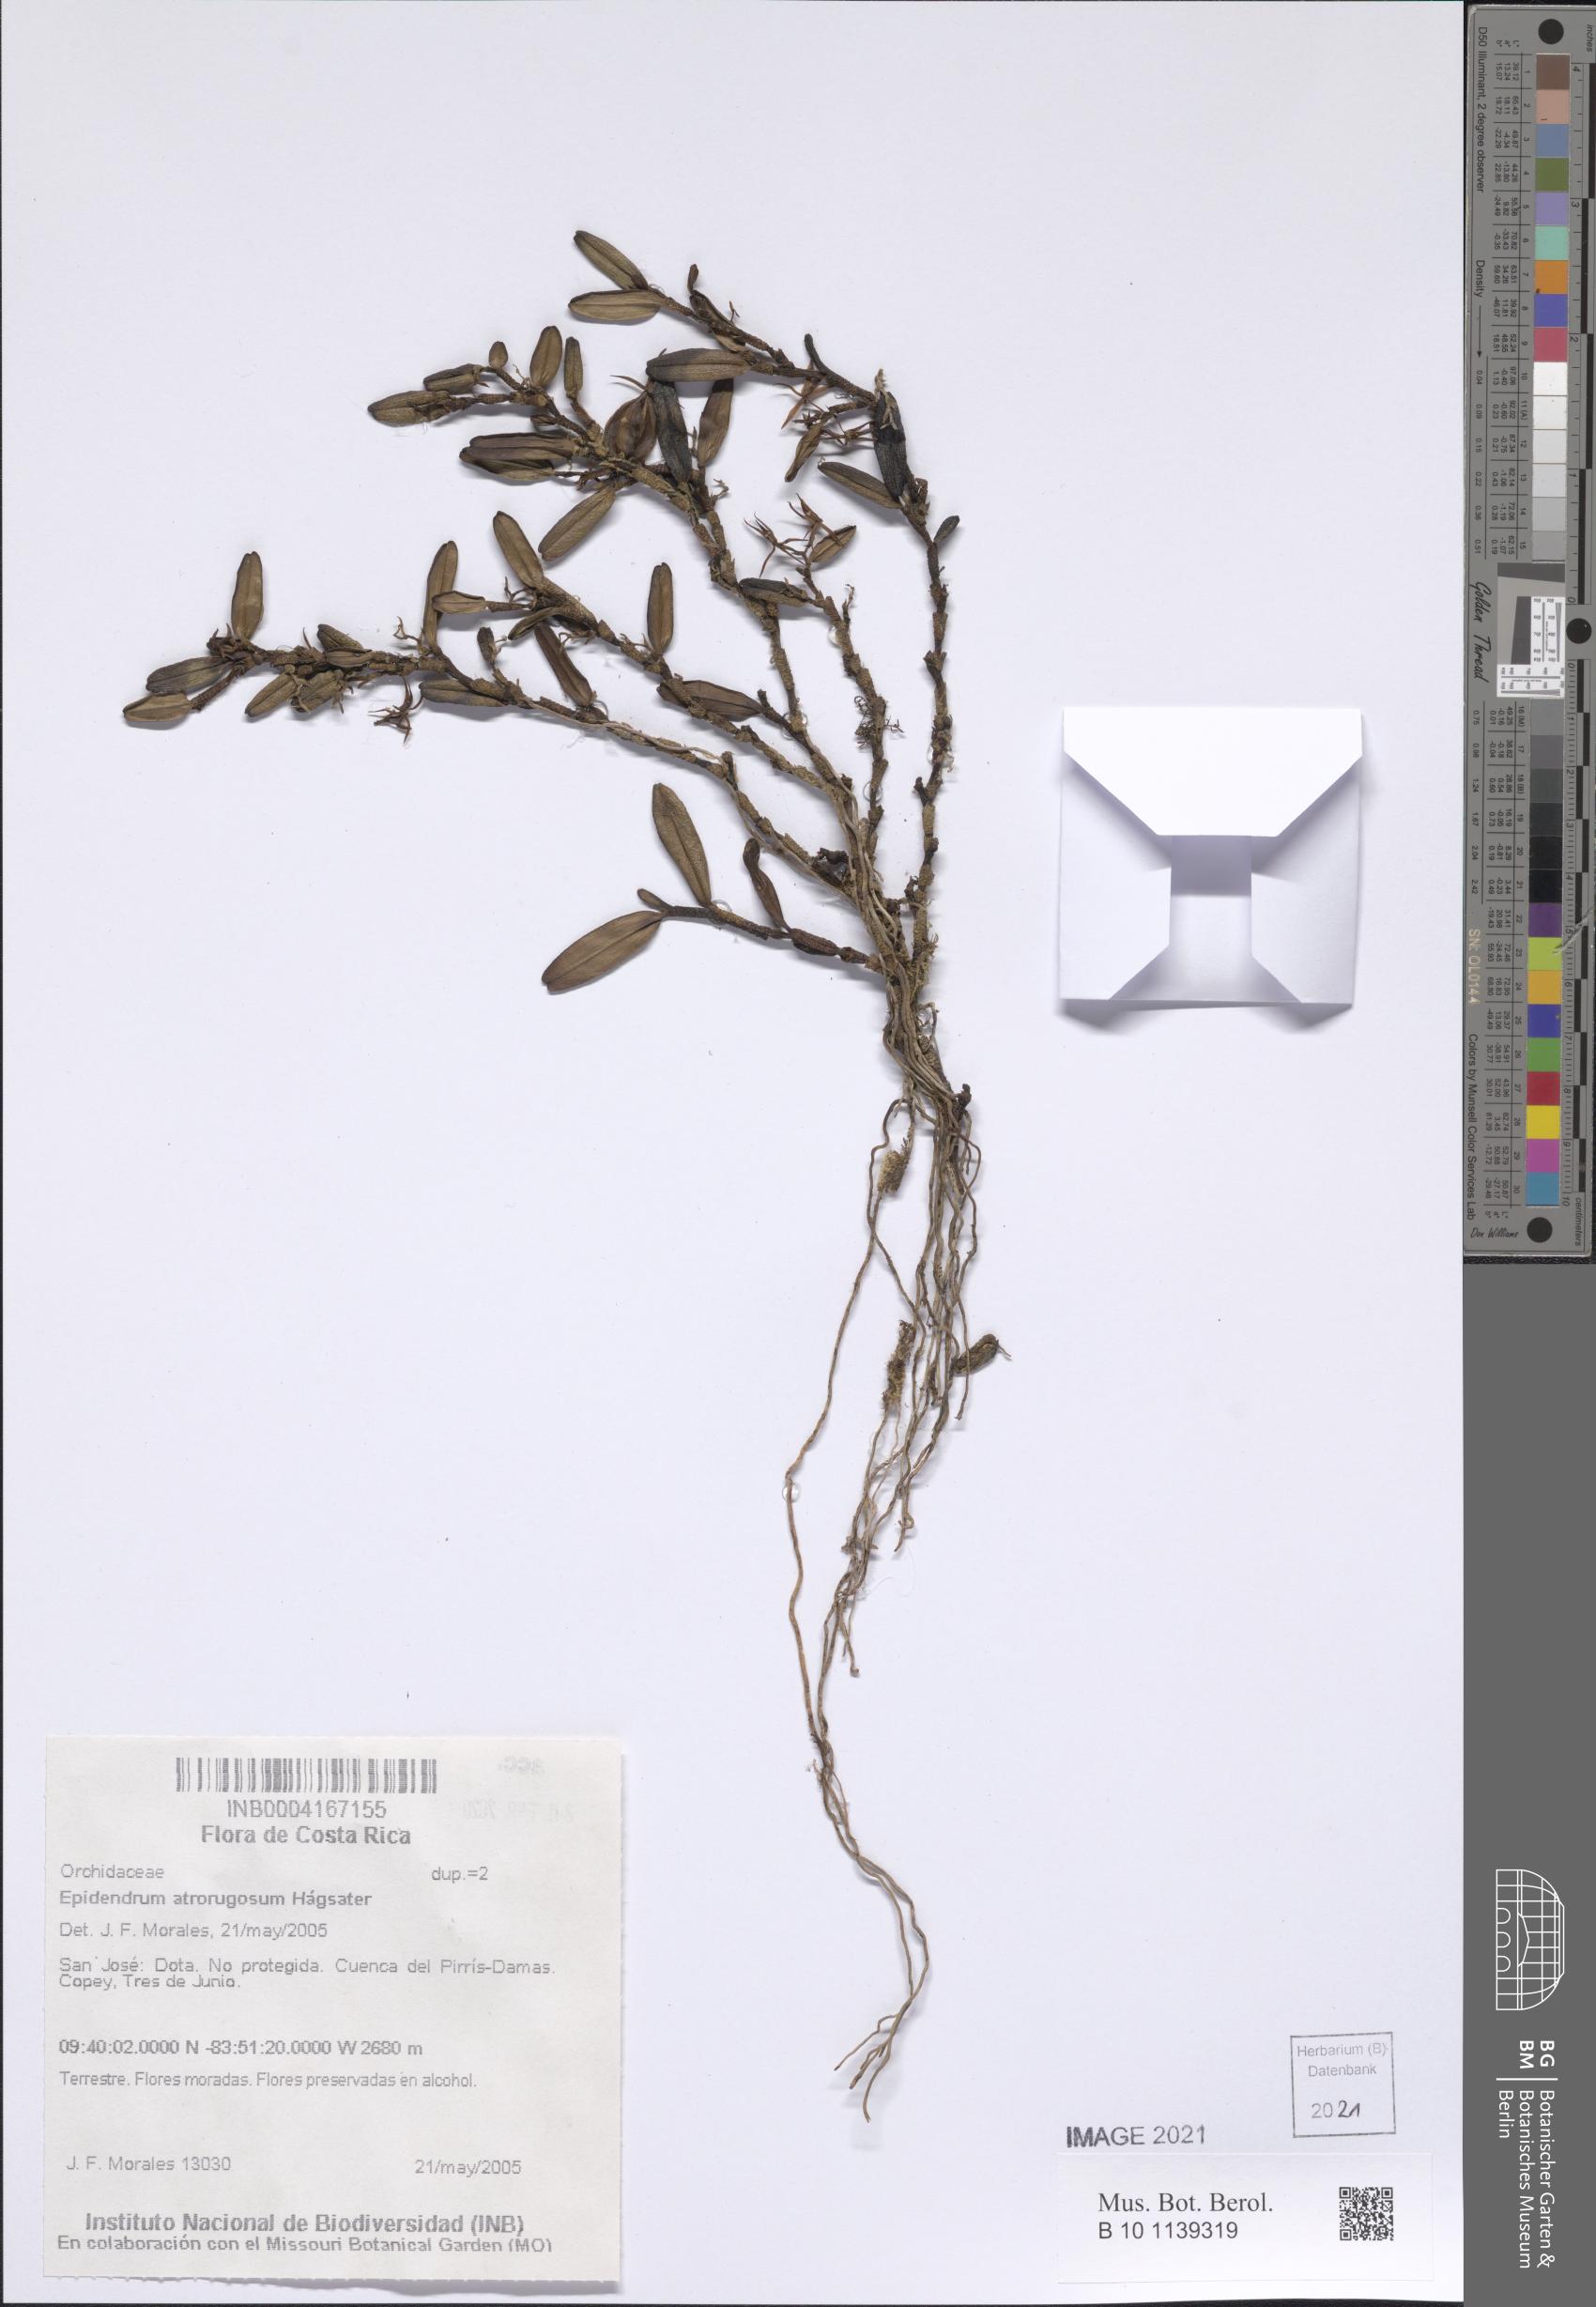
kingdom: Plantae
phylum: Tracheophyta
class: Liliopsida
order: Asparagales
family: Orchidaceae
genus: Epidendrum
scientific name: Epidendrum atrorugosum
